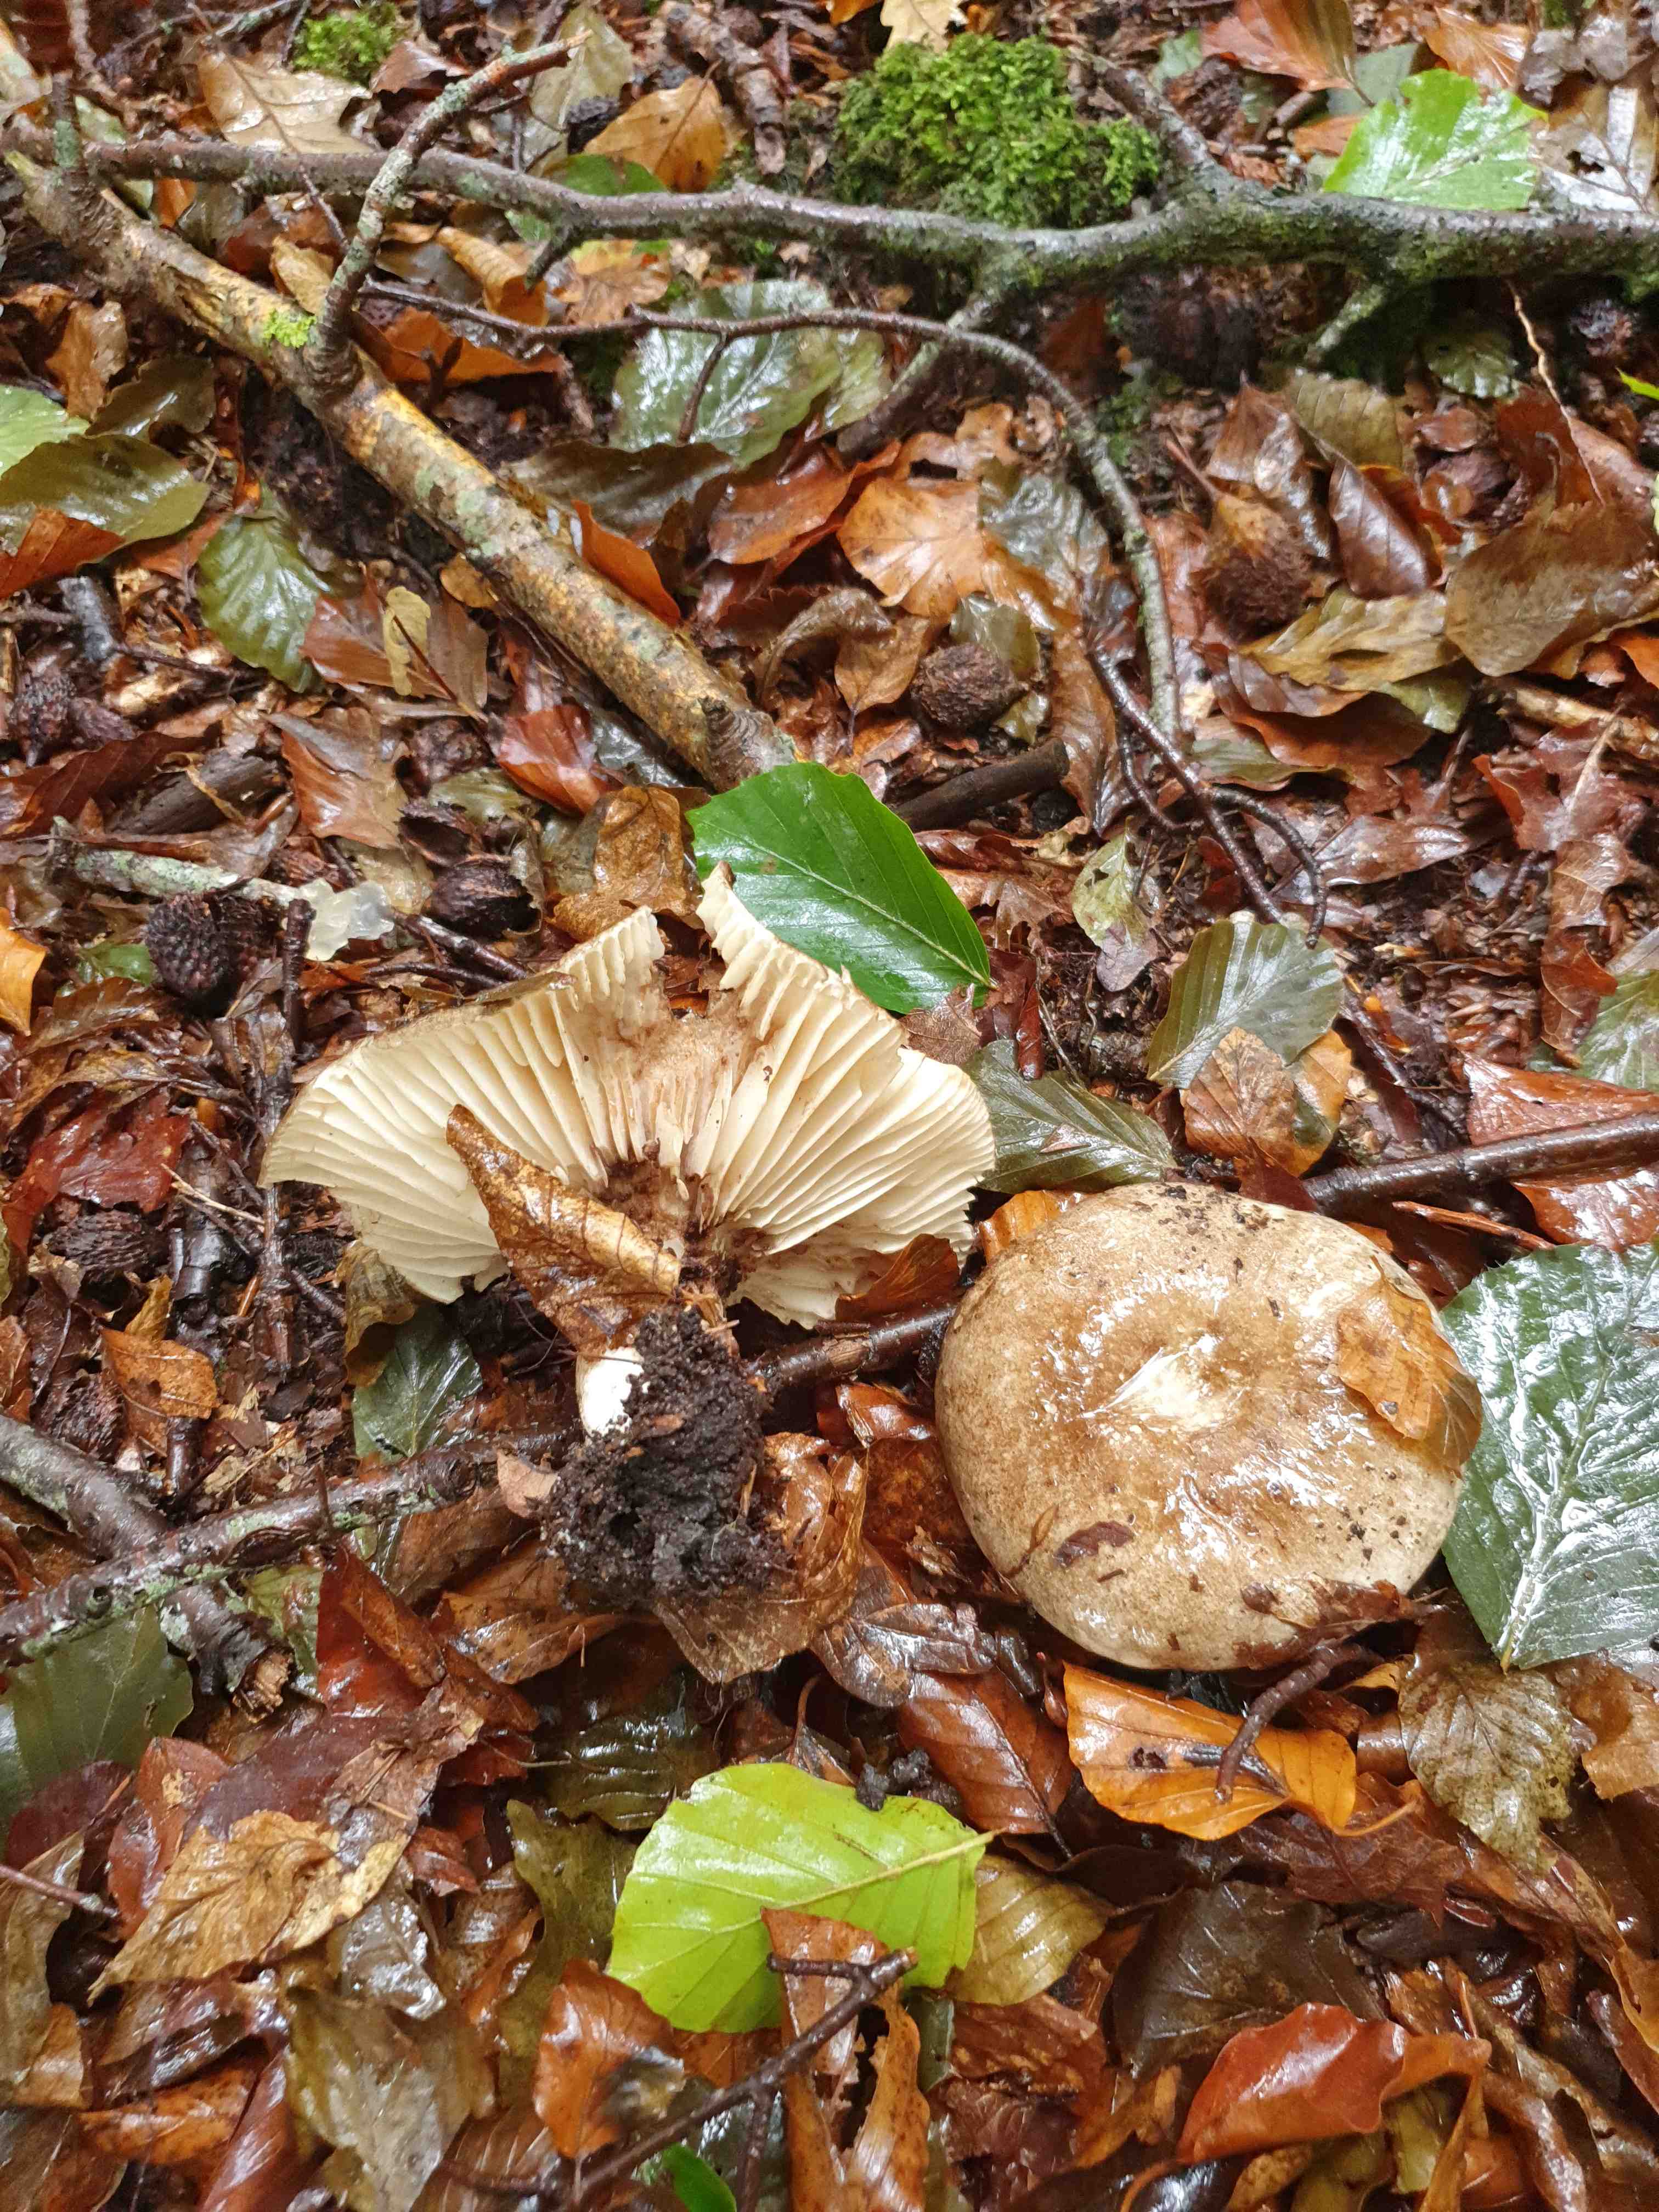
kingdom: Fungi
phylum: Basidiomycota
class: Agaricomycetes
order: Russulales
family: Russulaceae
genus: Russula
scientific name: Russula adusta
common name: sværtende skørhat
